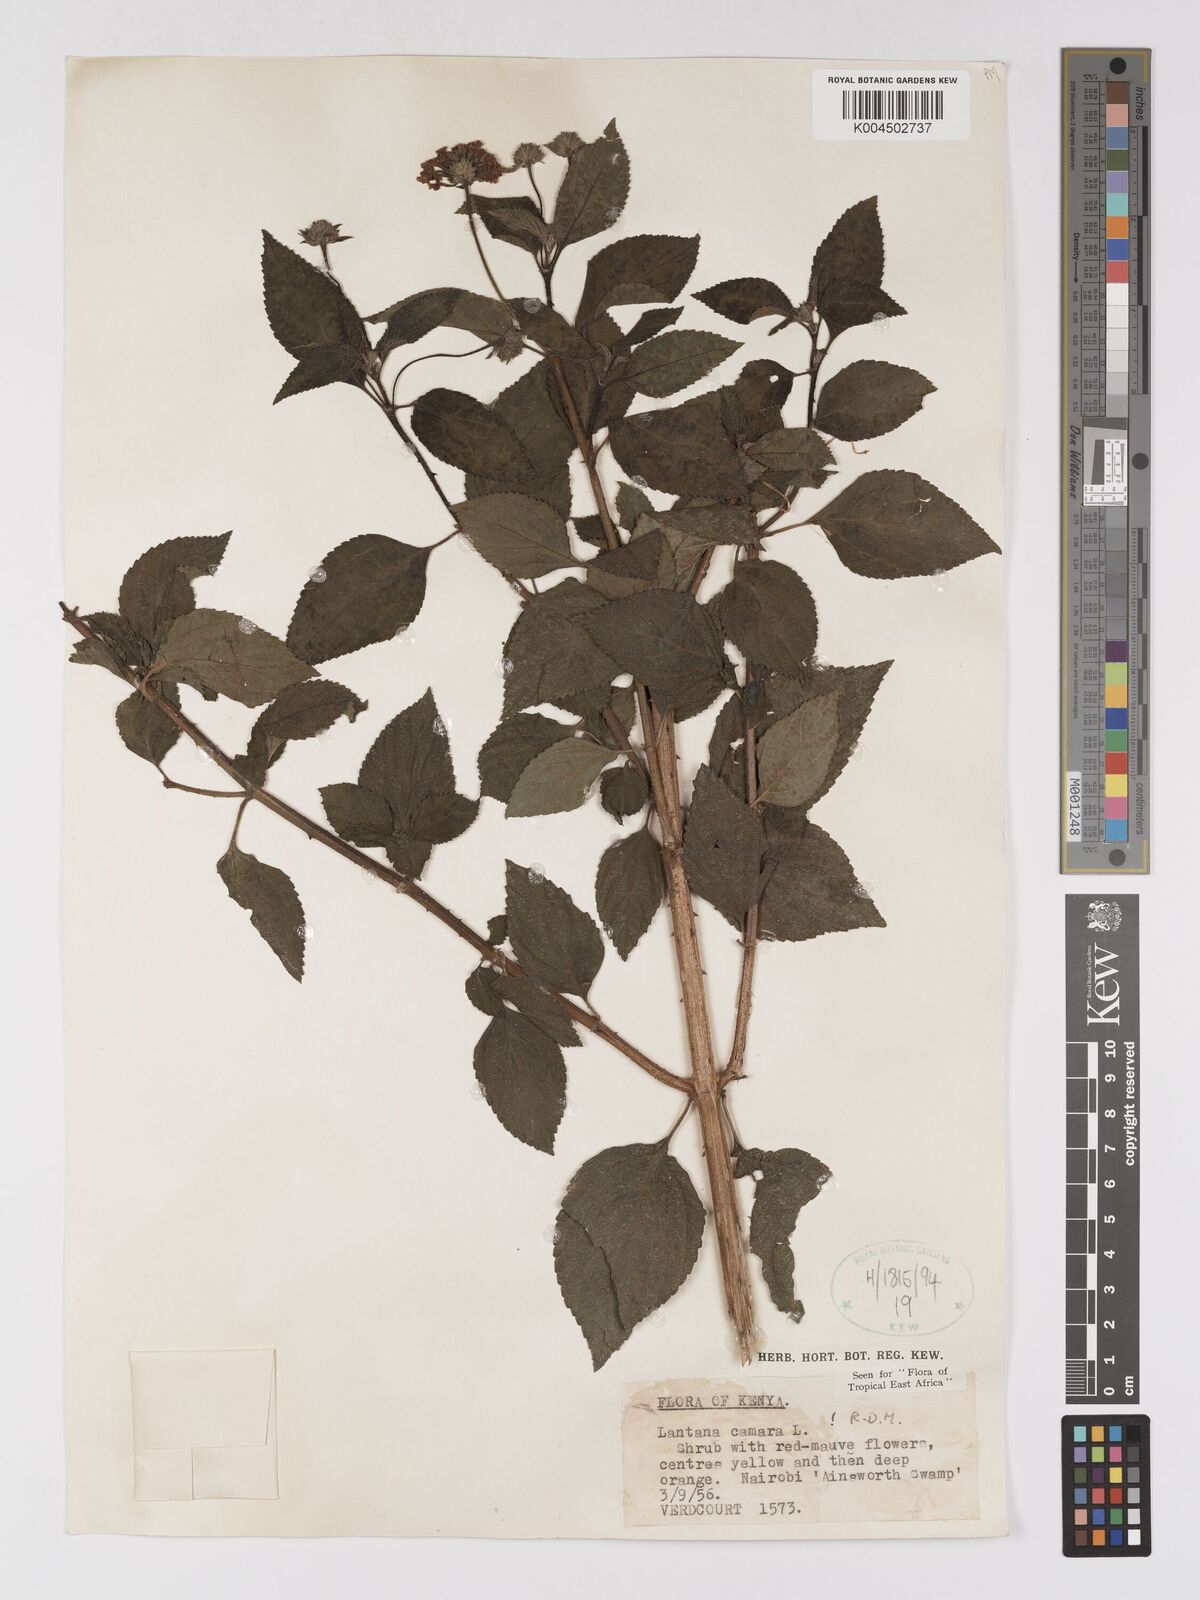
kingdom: Plantae
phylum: Tracheophyta
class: Magnoliopsida
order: Lamiales
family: Verbenaceae
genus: Lantana
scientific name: Lantana camara
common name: Lantana
